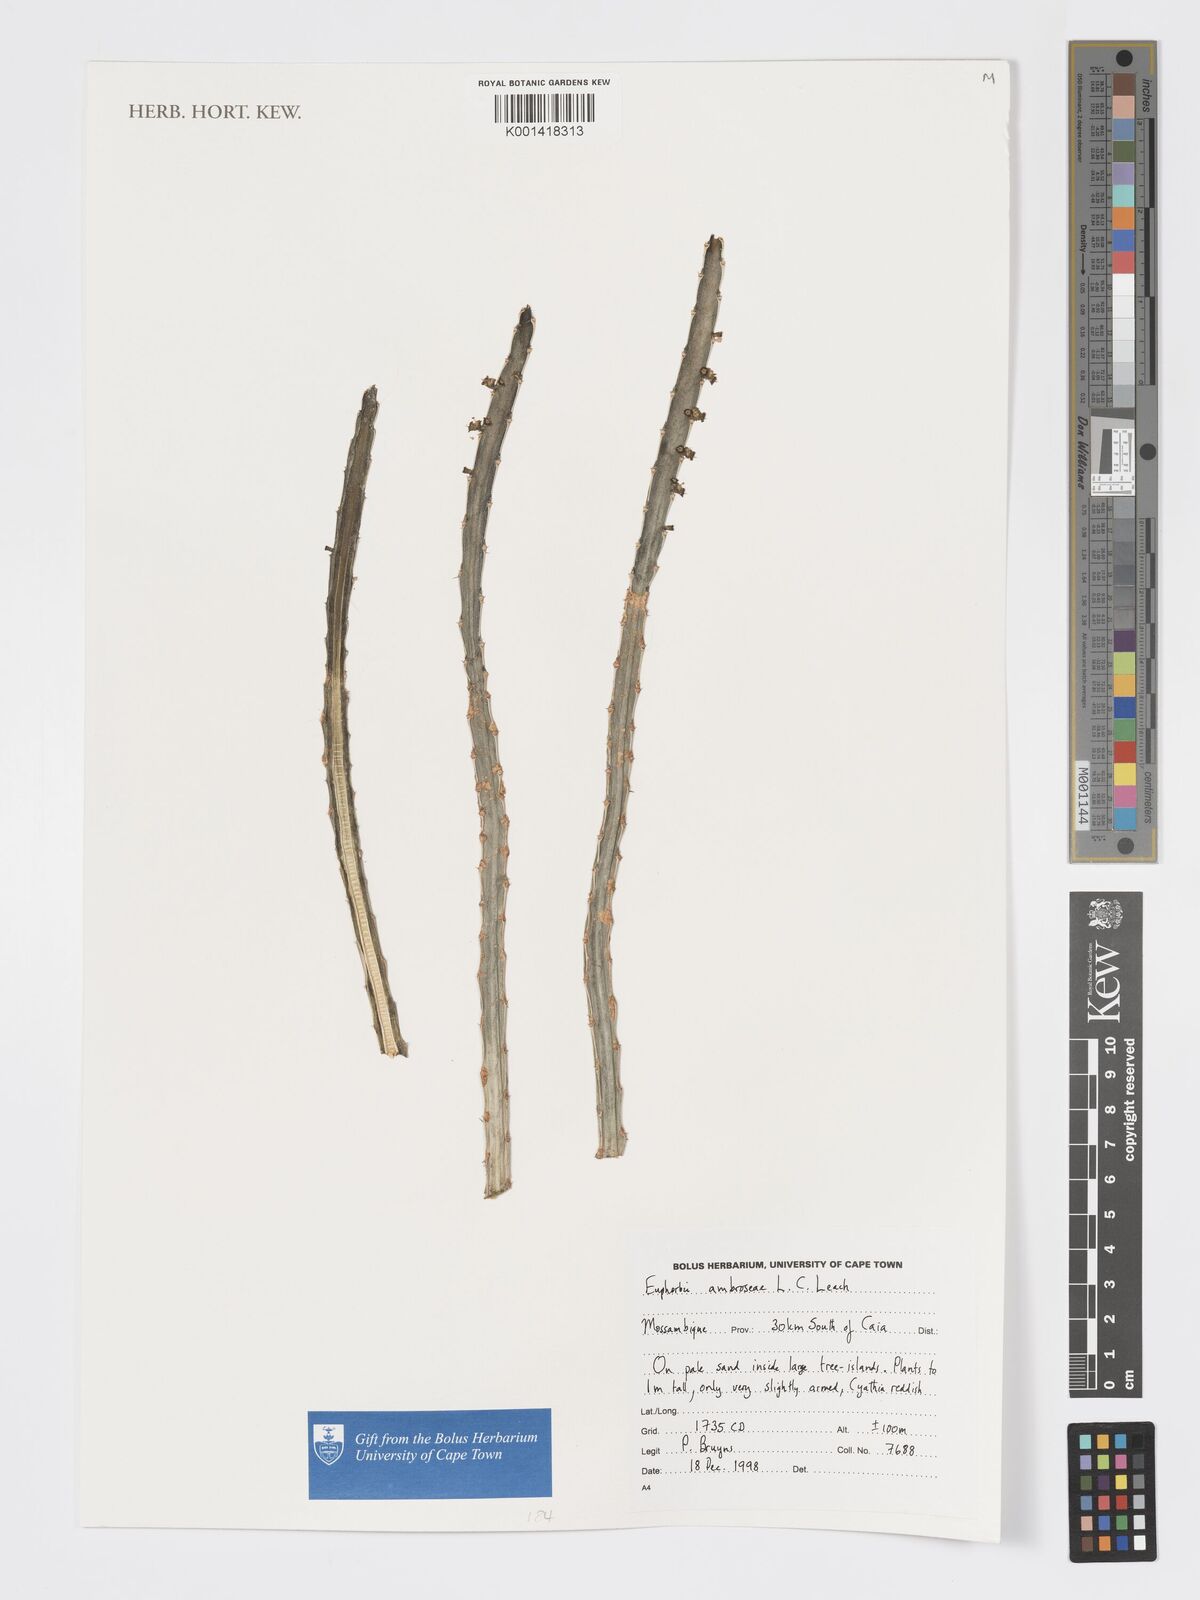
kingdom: Plantae
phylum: Tracheophyta
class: Magnoliopsida
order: Malpighiales
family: Euphorbiaceae
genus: Euphorbia
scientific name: Euphorbia ambroseae
